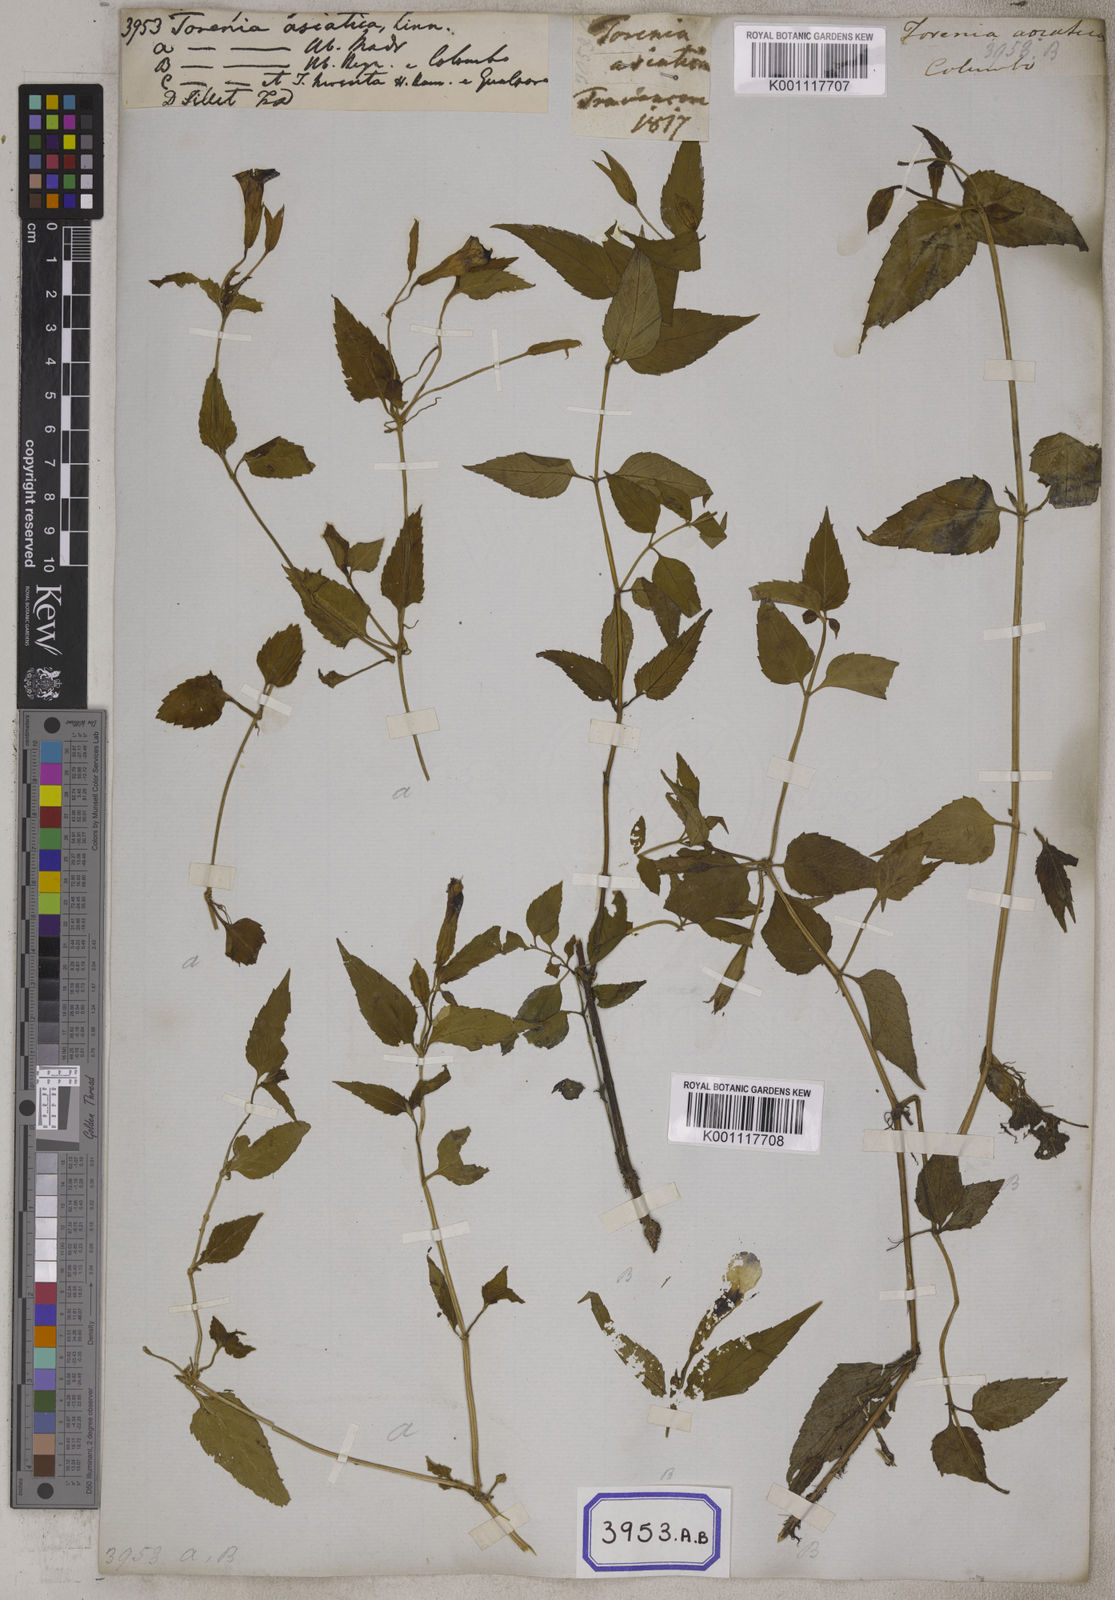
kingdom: Plantae
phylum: Tracheophyta
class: Magnoliopsida
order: Lamiales
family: Linderniaceae
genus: Torenia
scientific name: Torenia asiatica
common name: Wishbone flower
